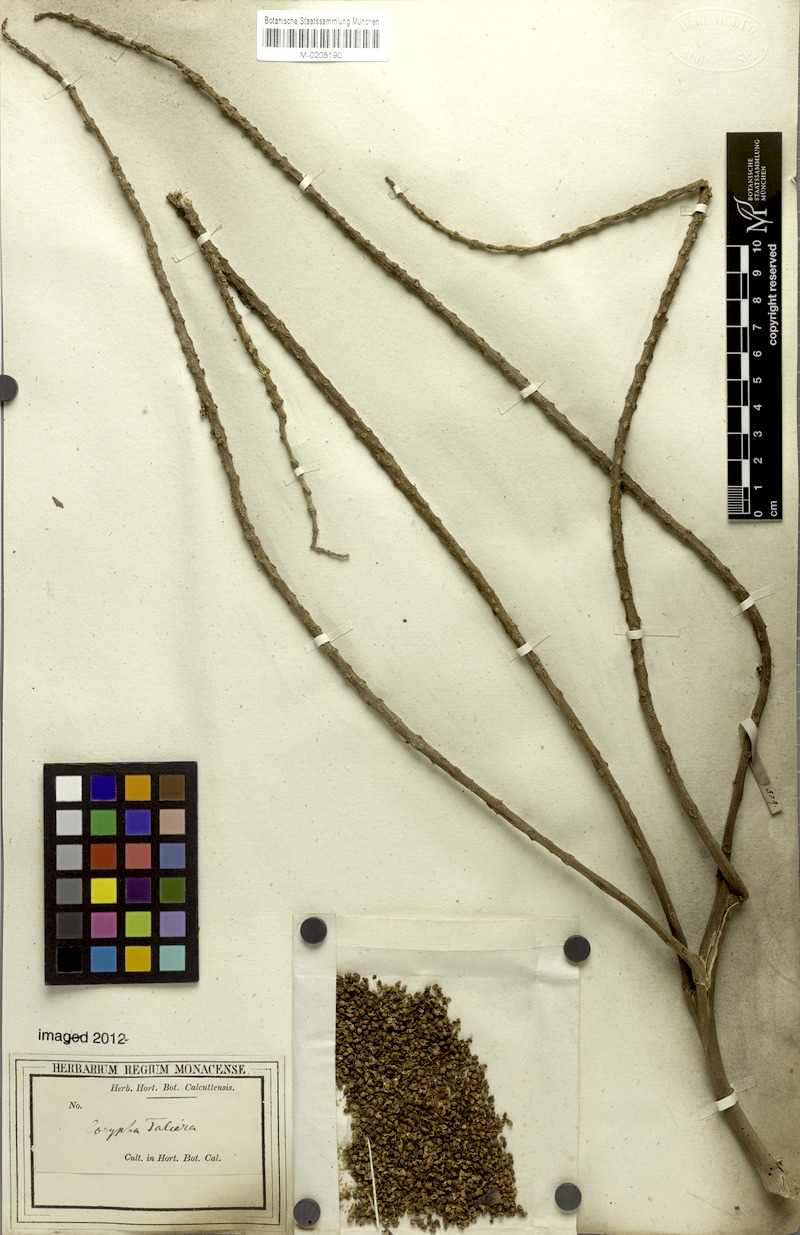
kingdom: Plantae
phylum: Tracheophyta
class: Liliopsida
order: Arecales
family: Arecaceae
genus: Corypha
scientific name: Corypha taliera
